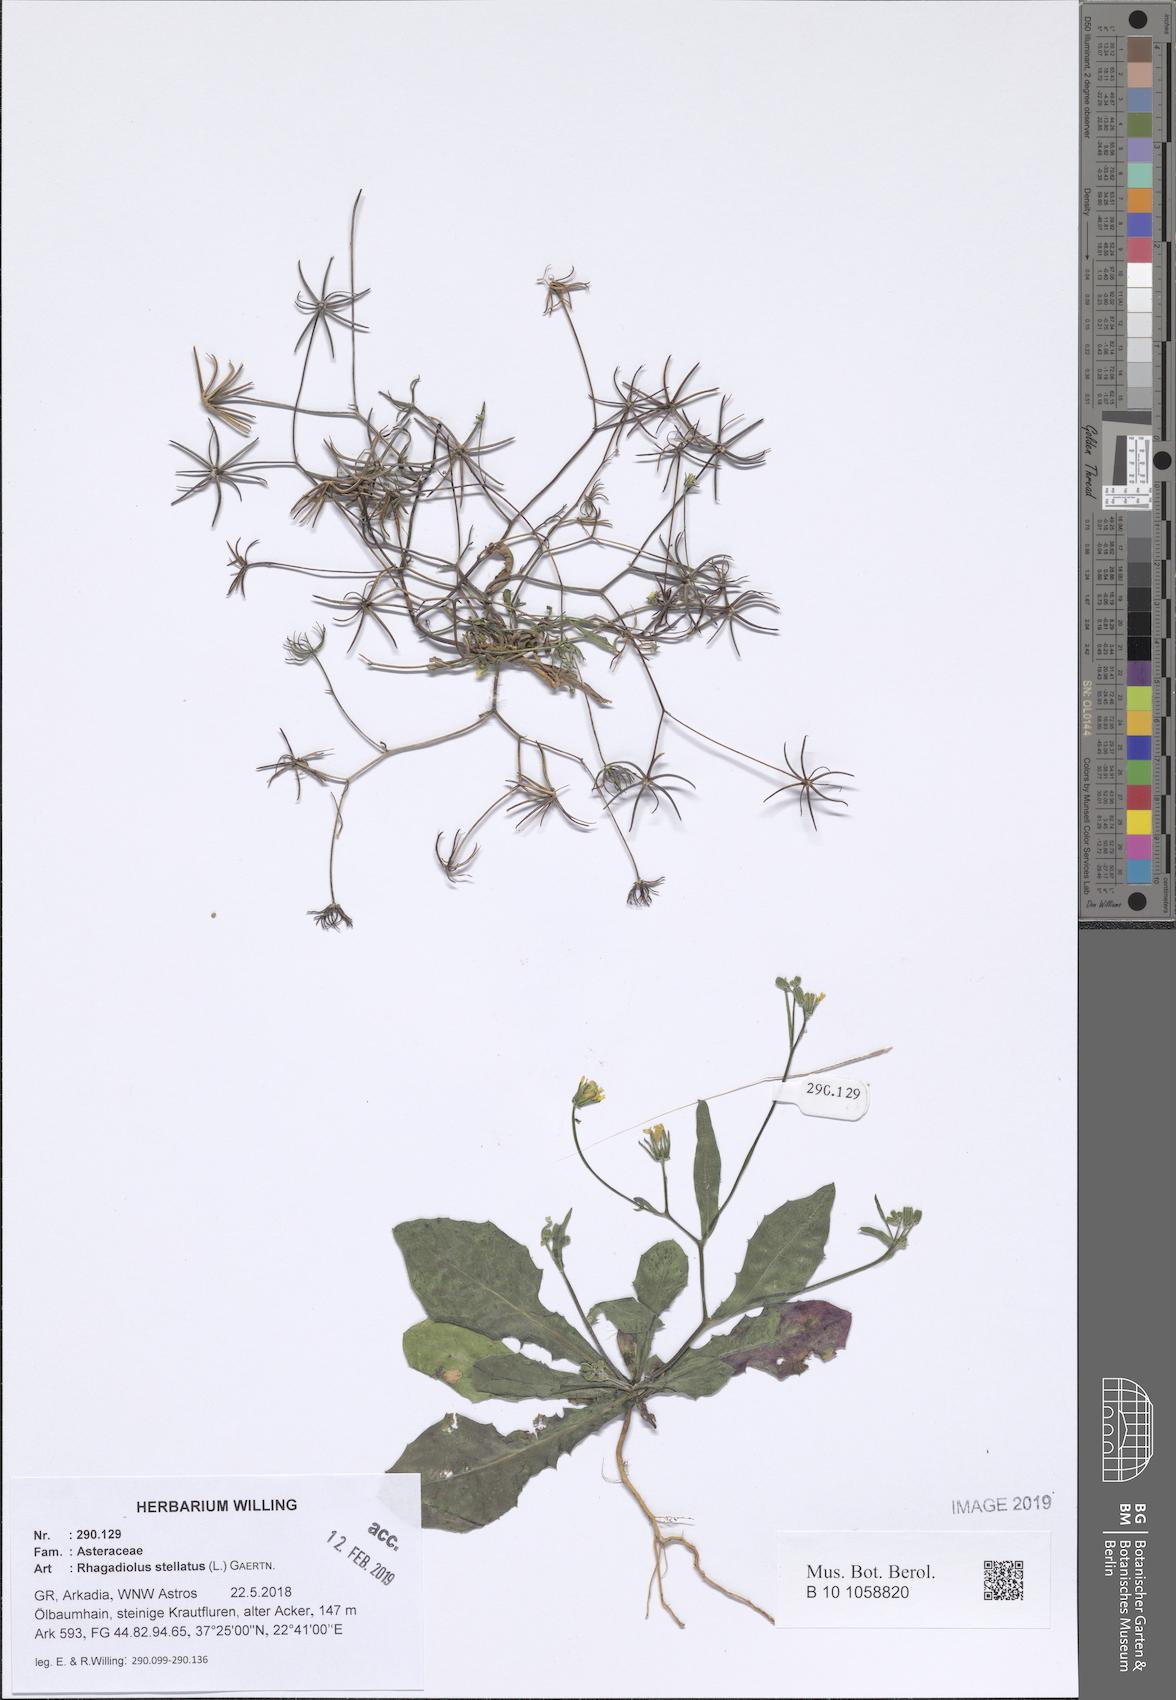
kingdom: Plantae
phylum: Tracheophyta
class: Magnoliopsida
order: Asterales
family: Asteraceae
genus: Rhagadiolus
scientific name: Rhagadiolus stellatus
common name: Star hawkbit
